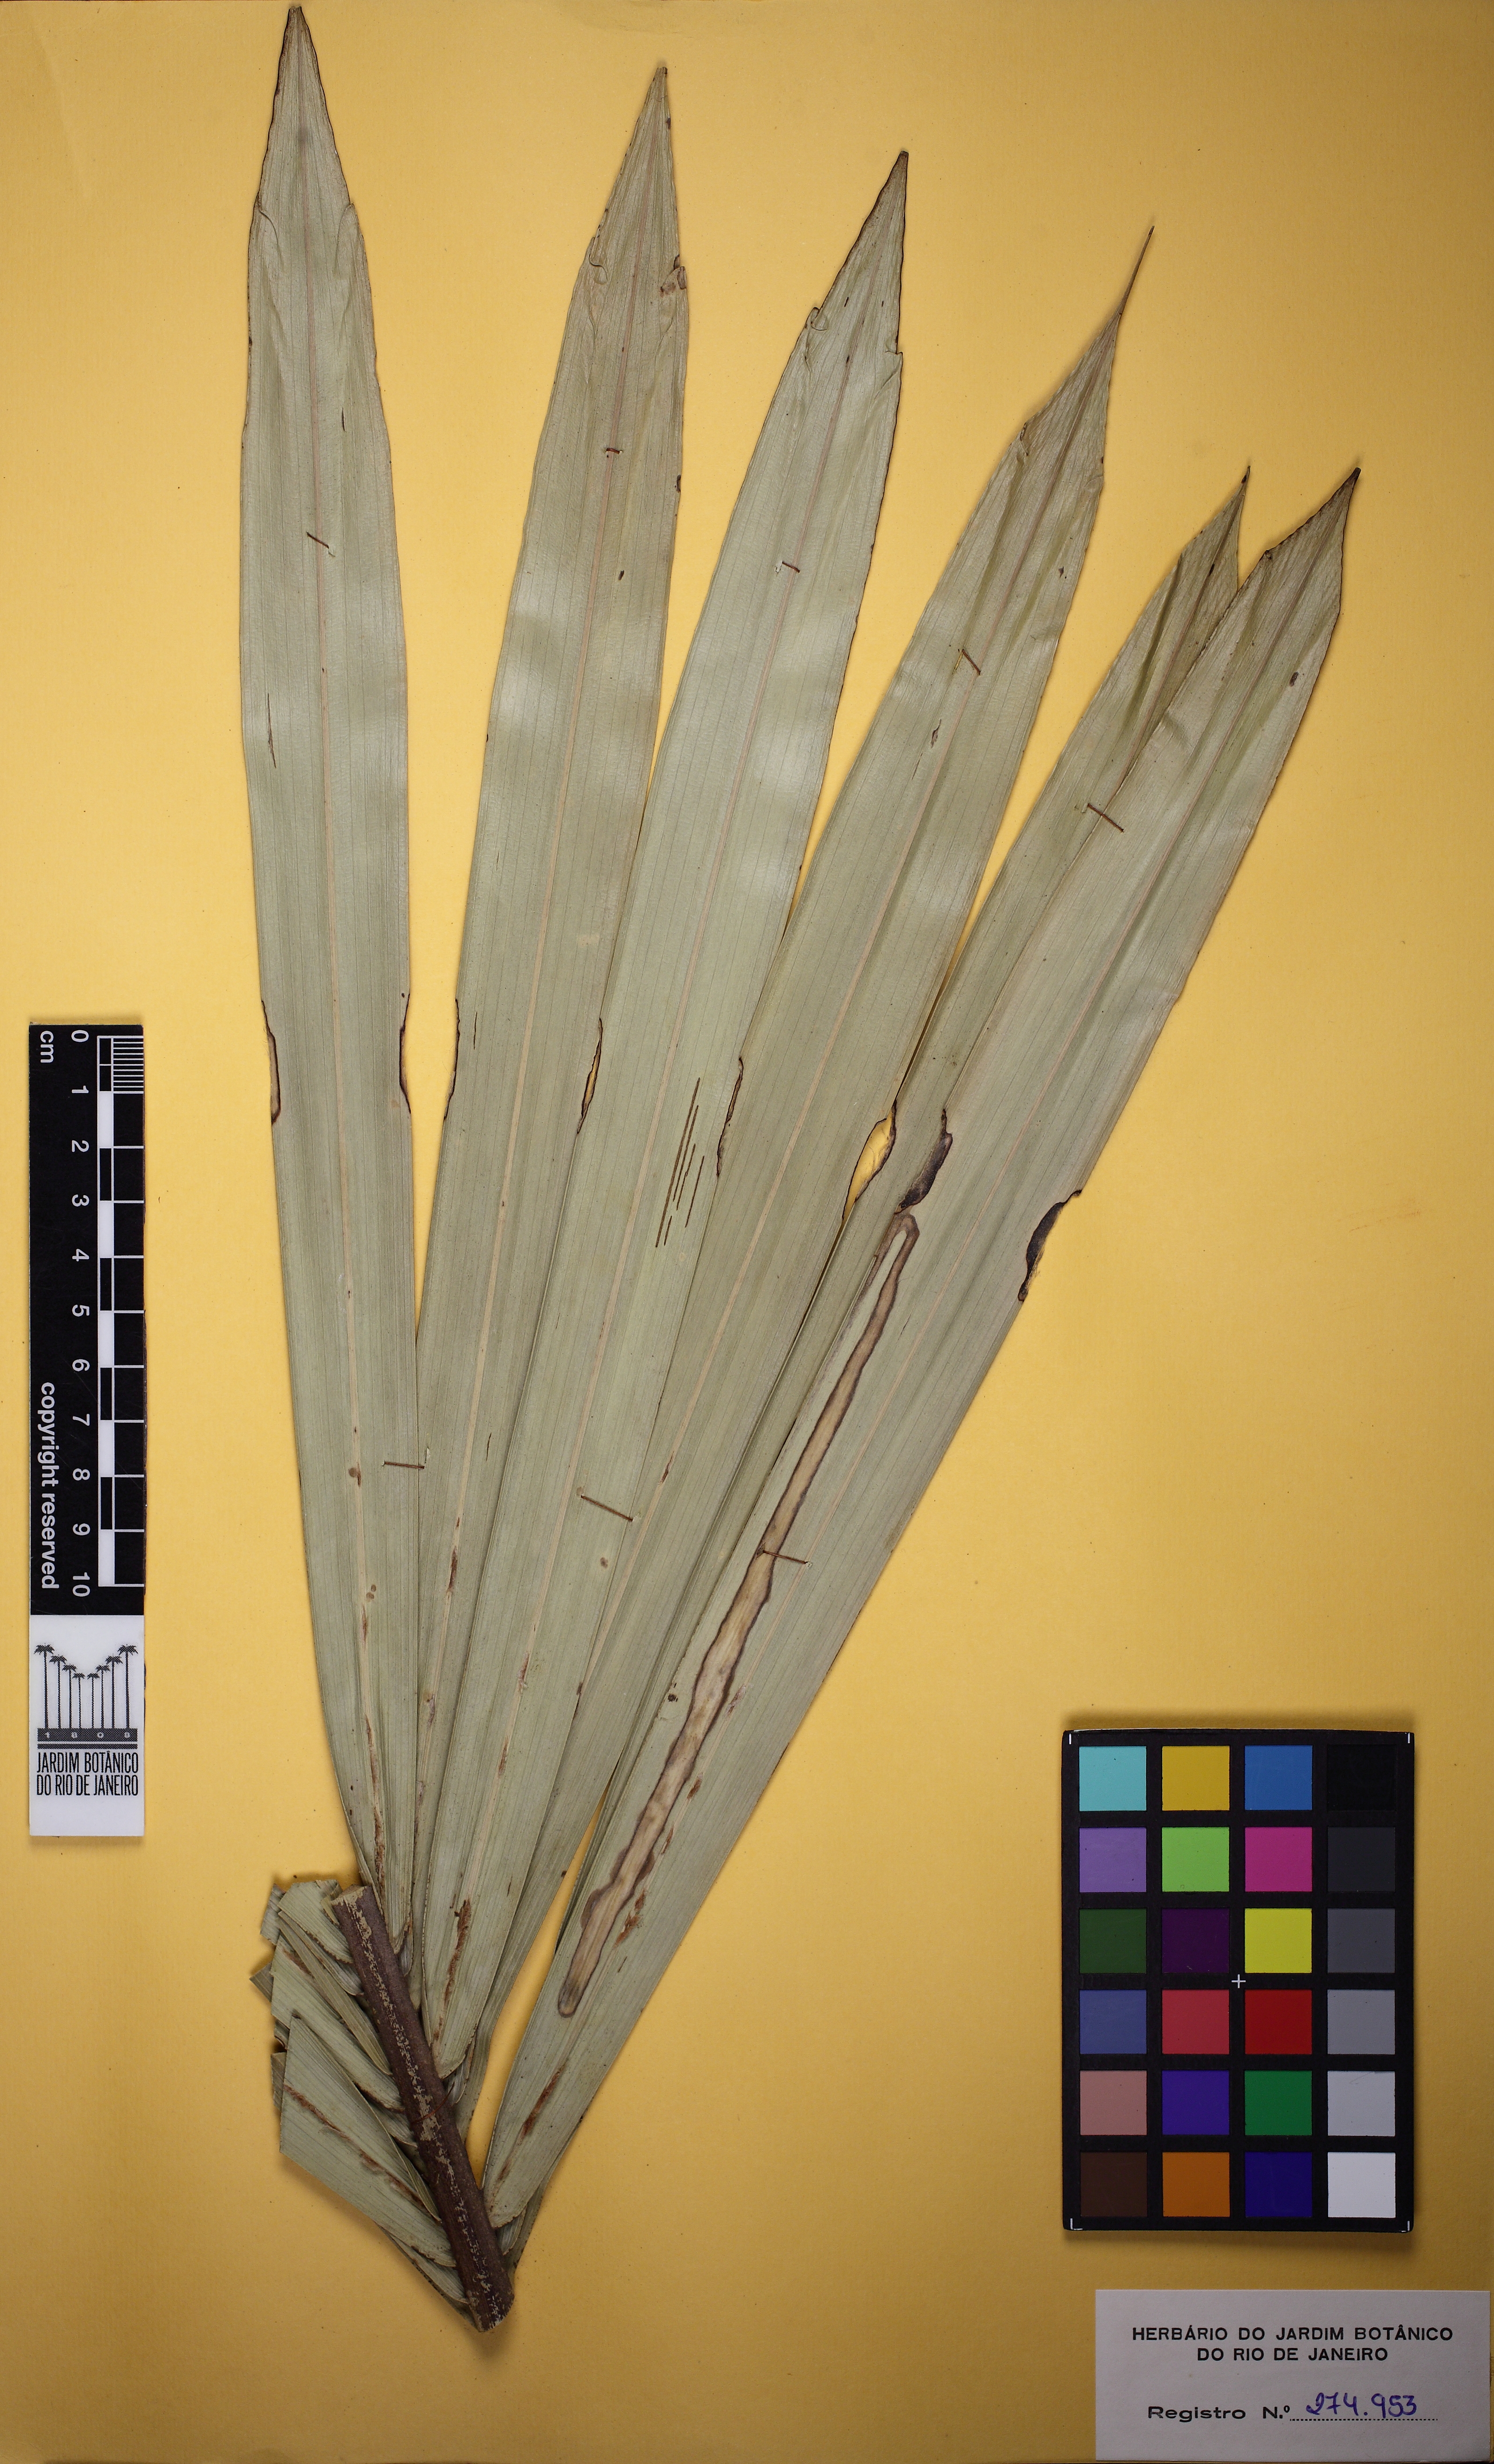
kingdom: Plantae
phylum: Tracheophyta
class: Liliopsida
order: Arecales
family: Arecaceae
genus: Butia
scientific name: Butia capitata
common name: South american jelly palm
